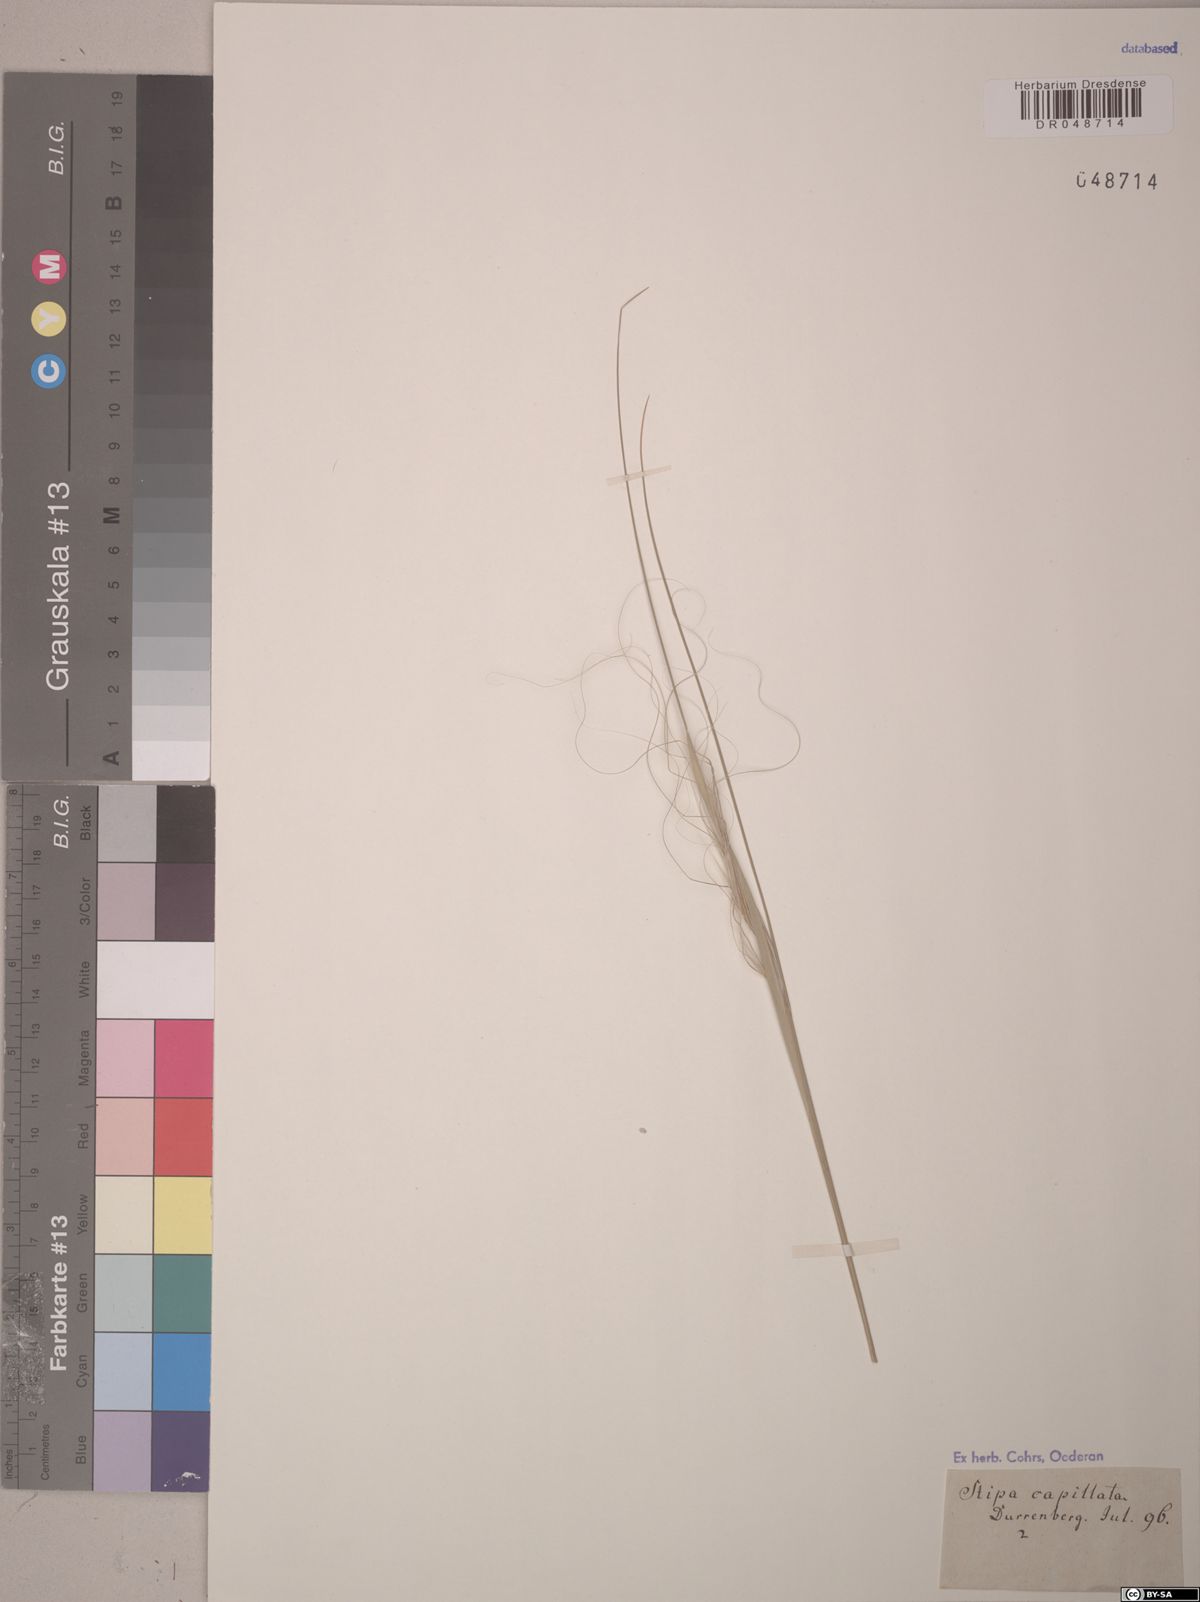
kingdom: Plantae
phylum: Tracheophyta
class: Liliopsida
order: Poales
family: Poaceae
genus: Stipa
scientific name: Stipa capillata
